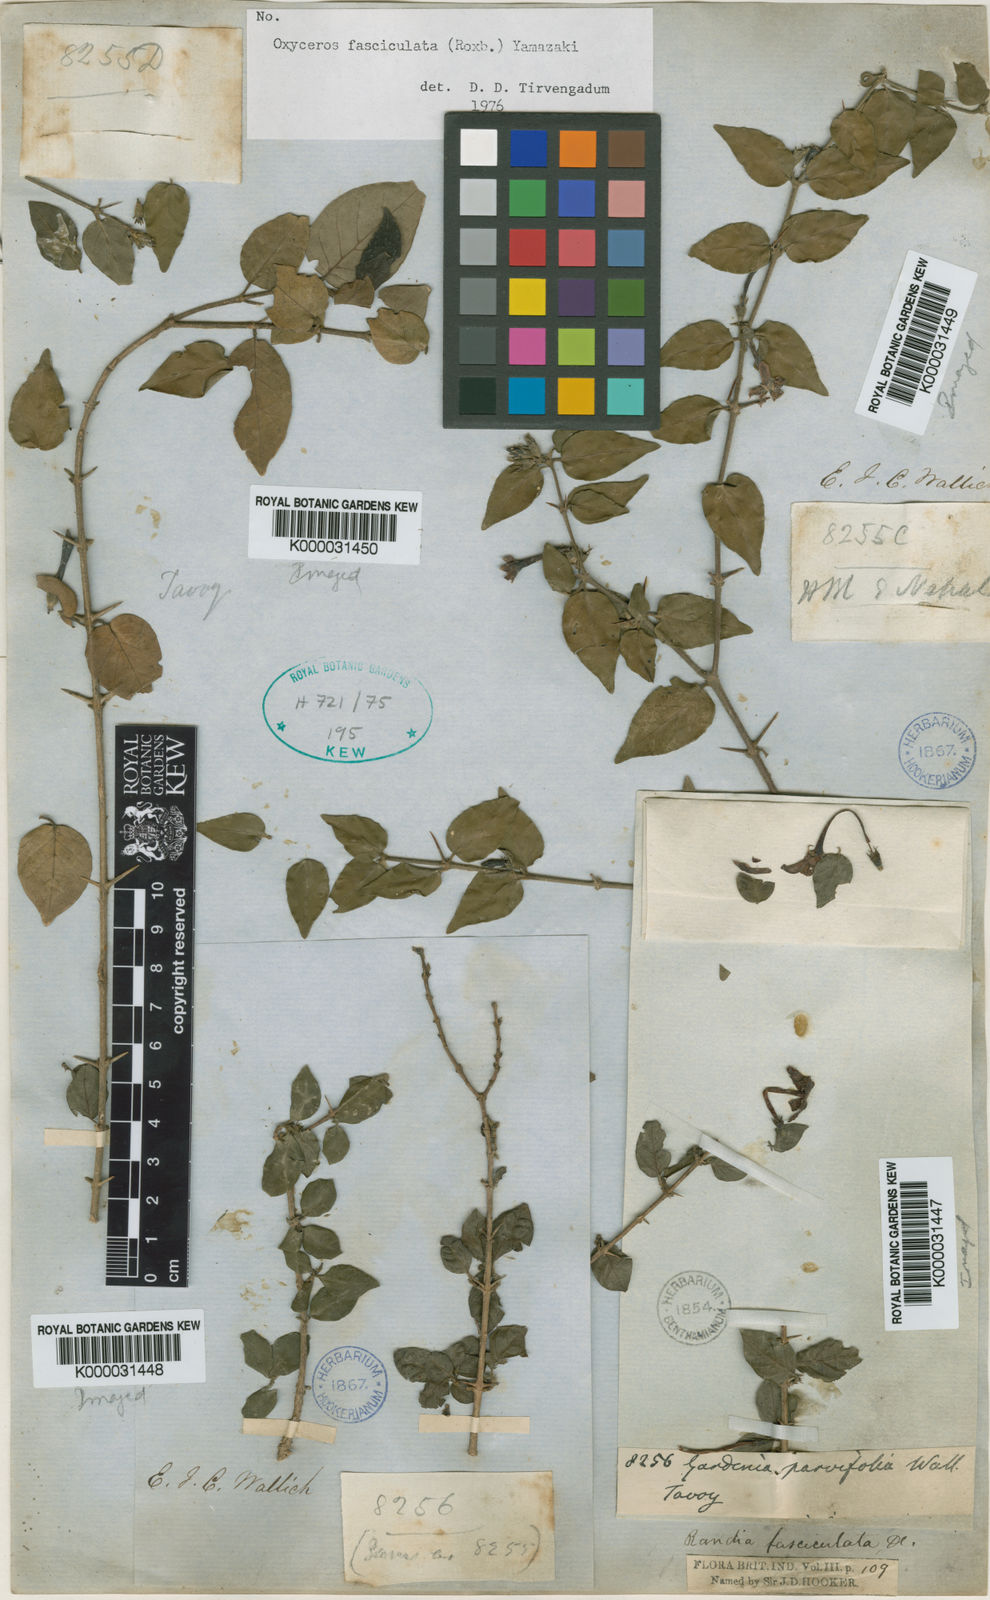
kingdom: Plantae
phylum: Tracheophyta
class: Magnoliopsida
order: Gentianales
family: Rubiaceae
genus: Benkara
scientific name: Benkara
